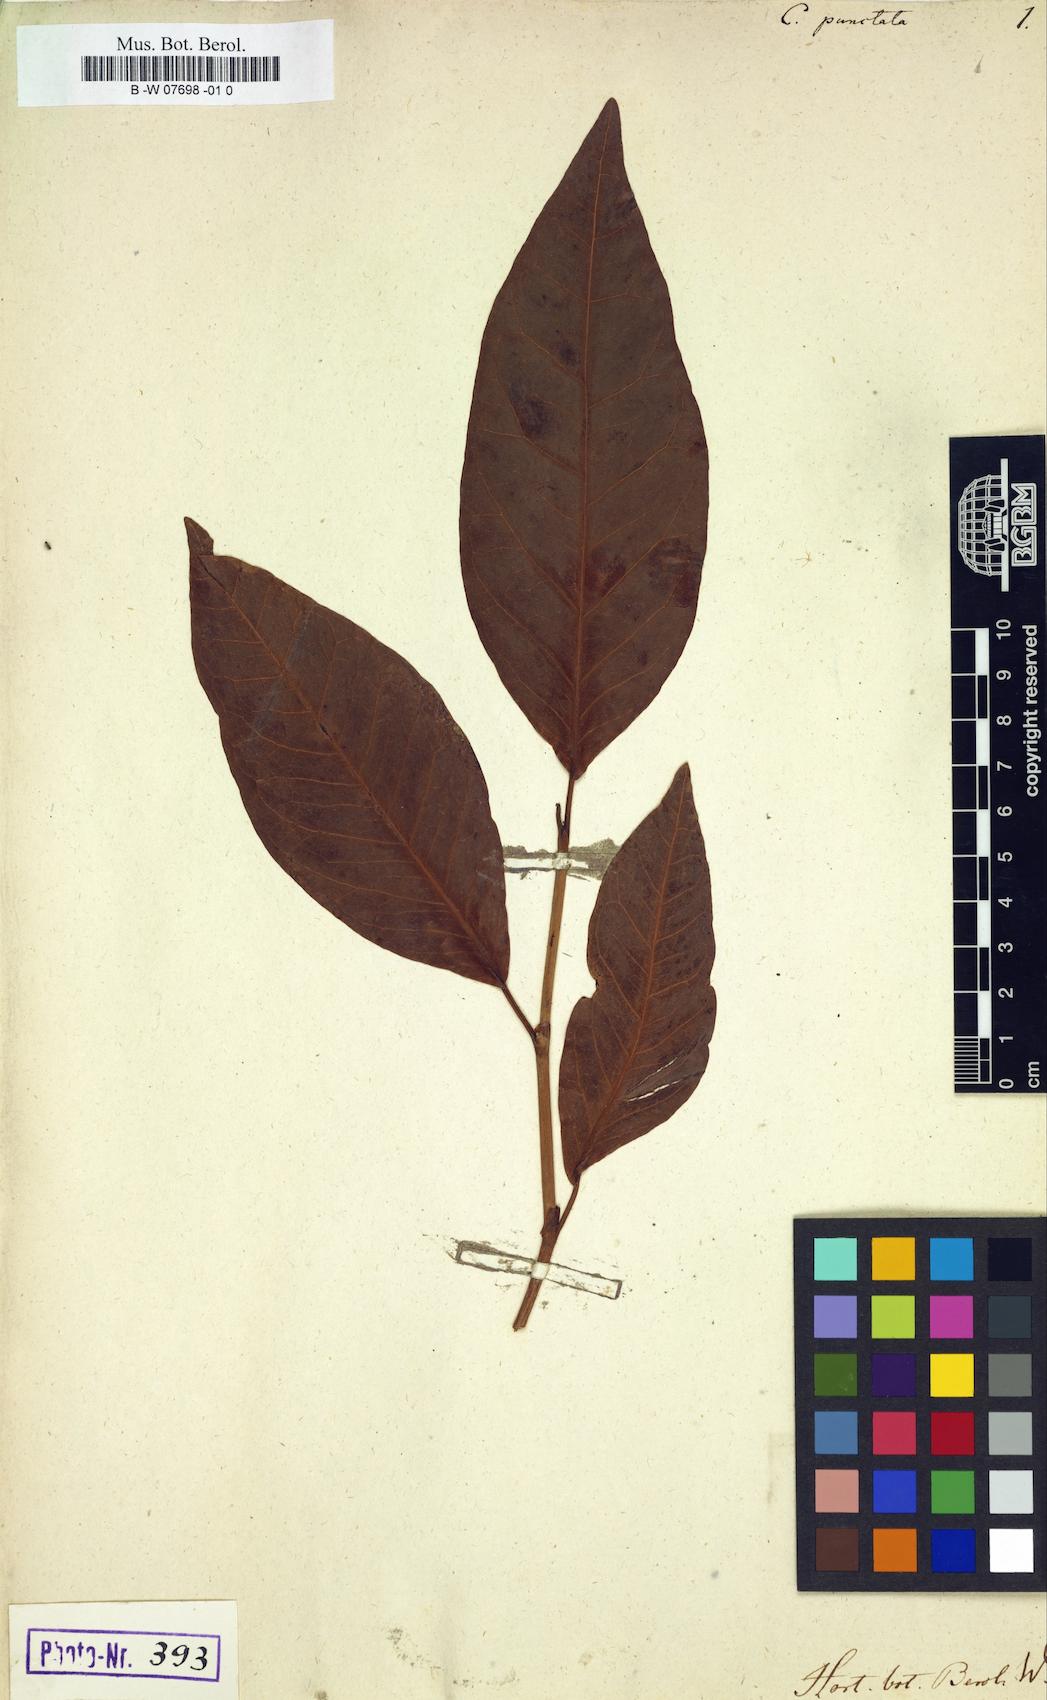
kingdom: Plantae
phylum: Tracheophyta
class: Magnoliopsida
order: Caryophyllales
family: Polygonaceae
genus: Coccoloba
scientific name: Coccoloba
